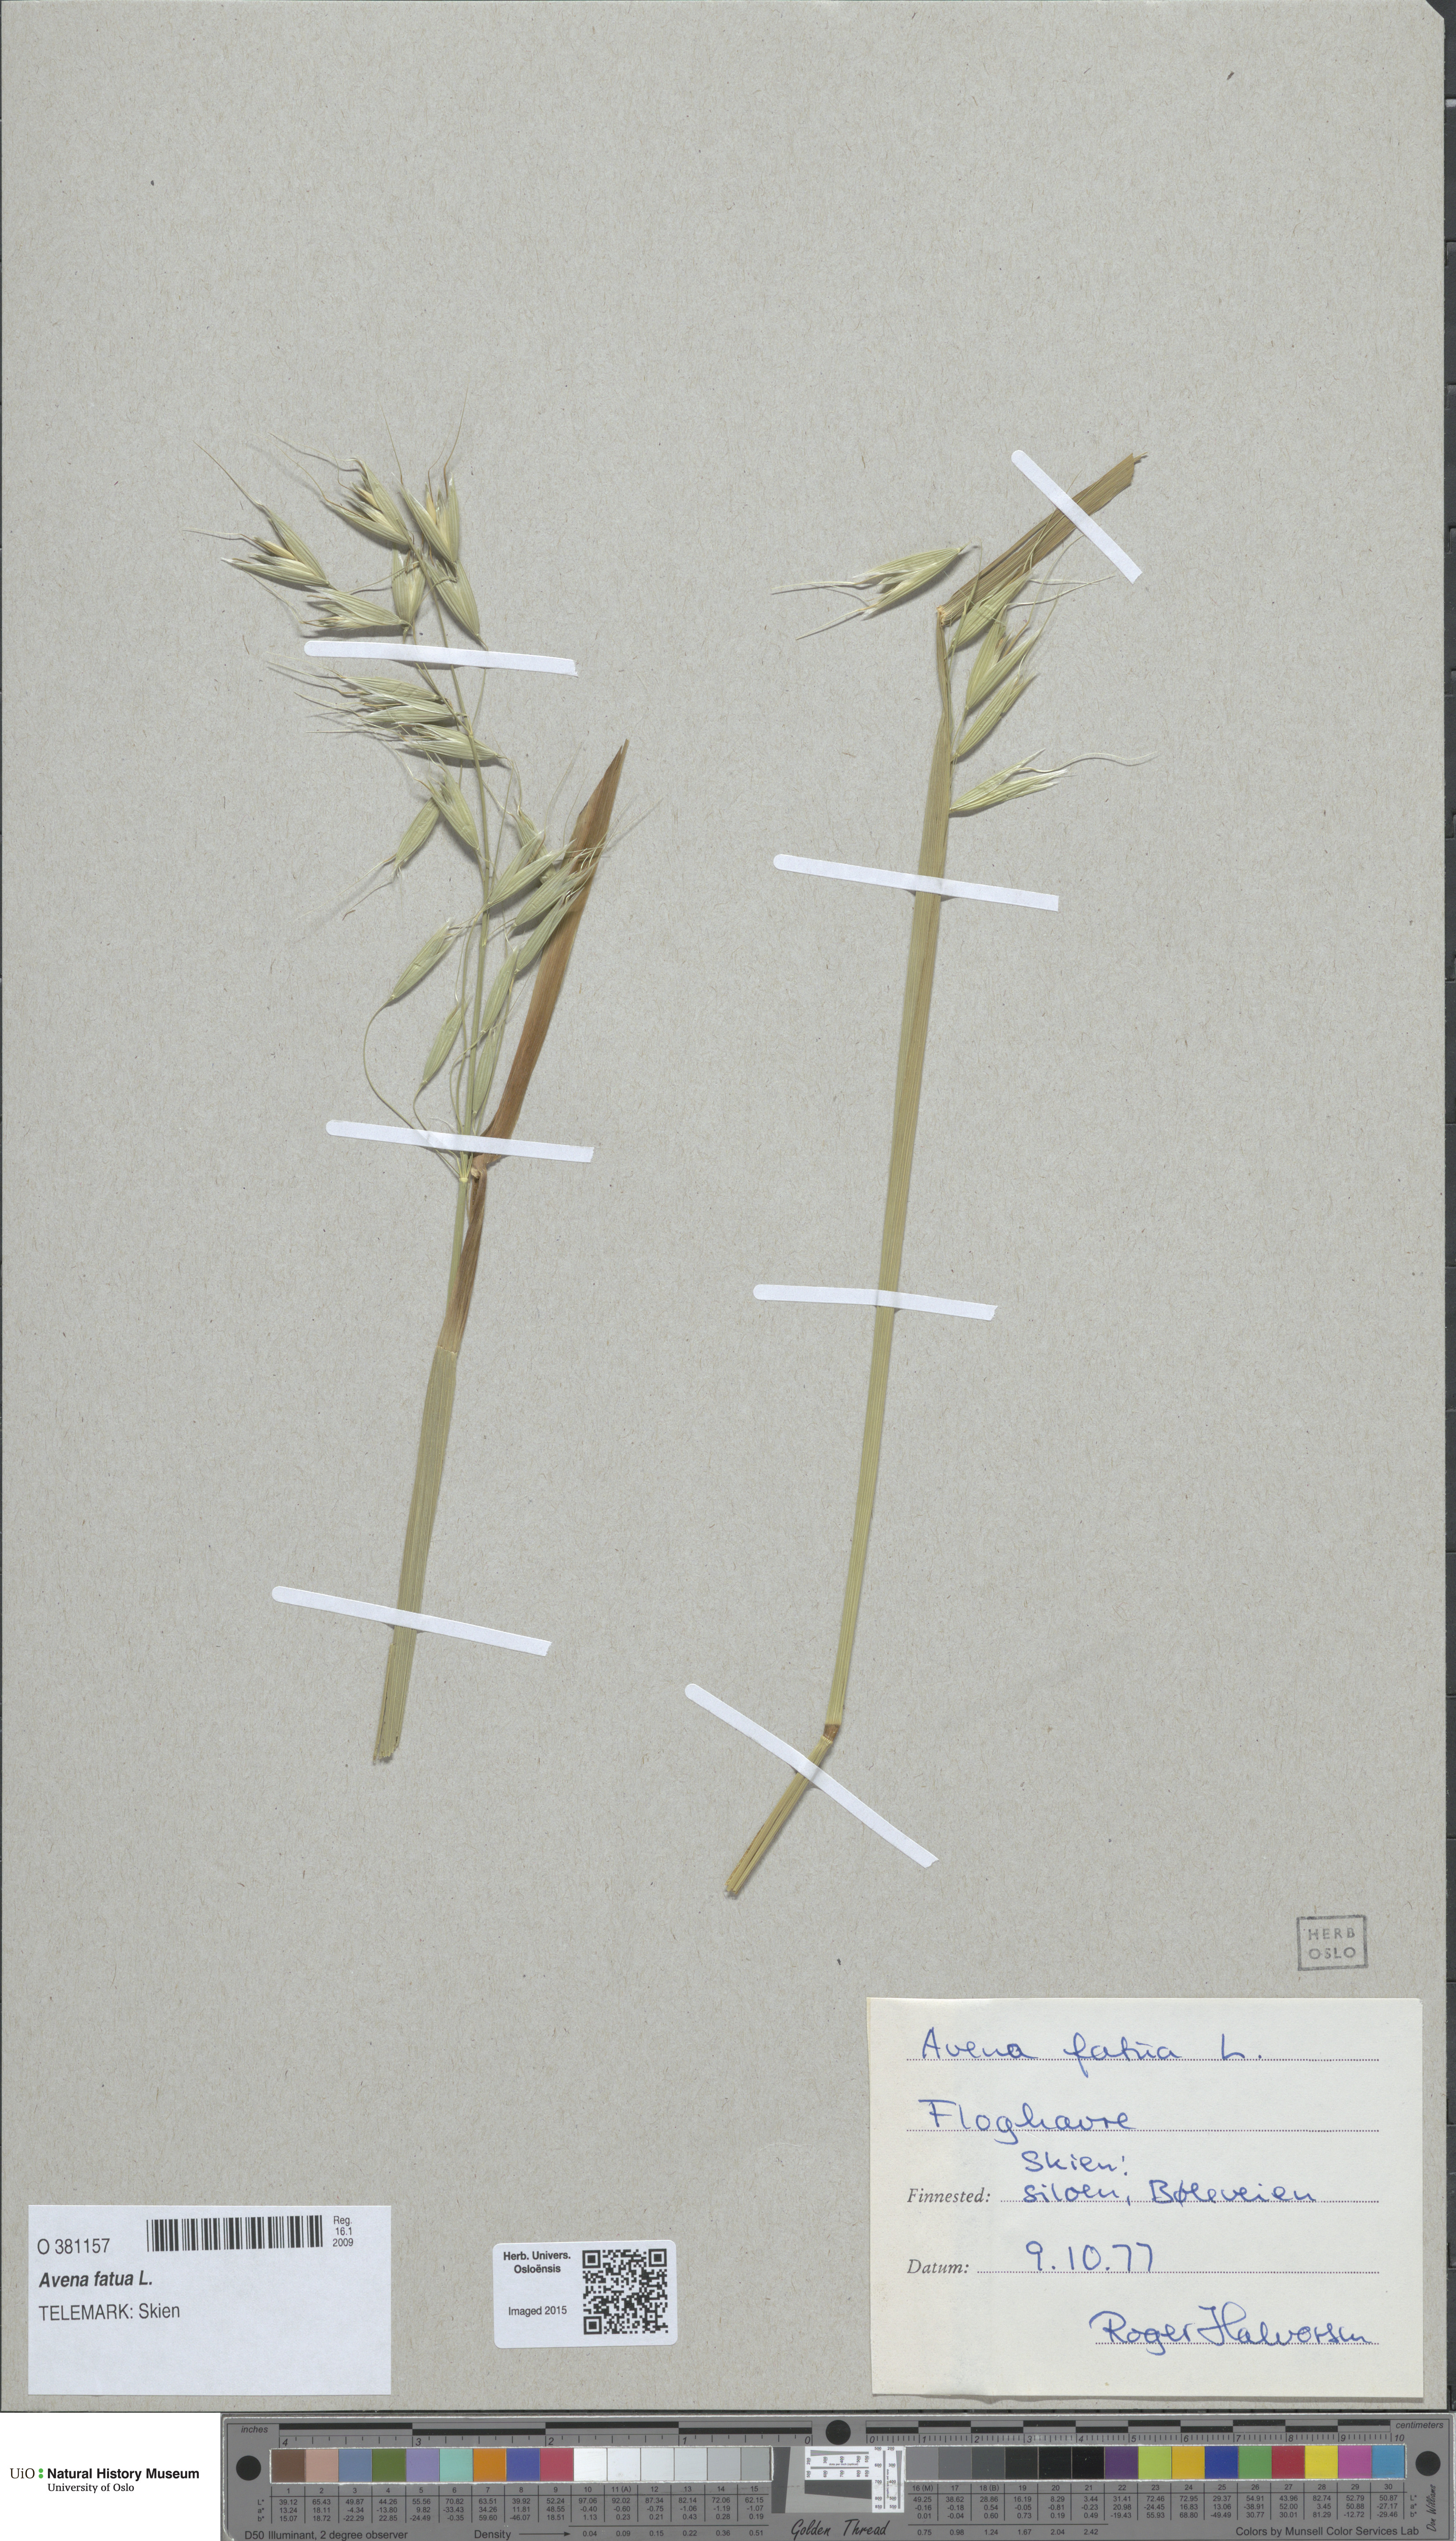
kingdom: Plantae
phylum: Tracheophyta
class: Liliopsida
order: Poales
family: Poaceae
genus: Avena
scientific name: Avena fatua
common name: Wild oat
